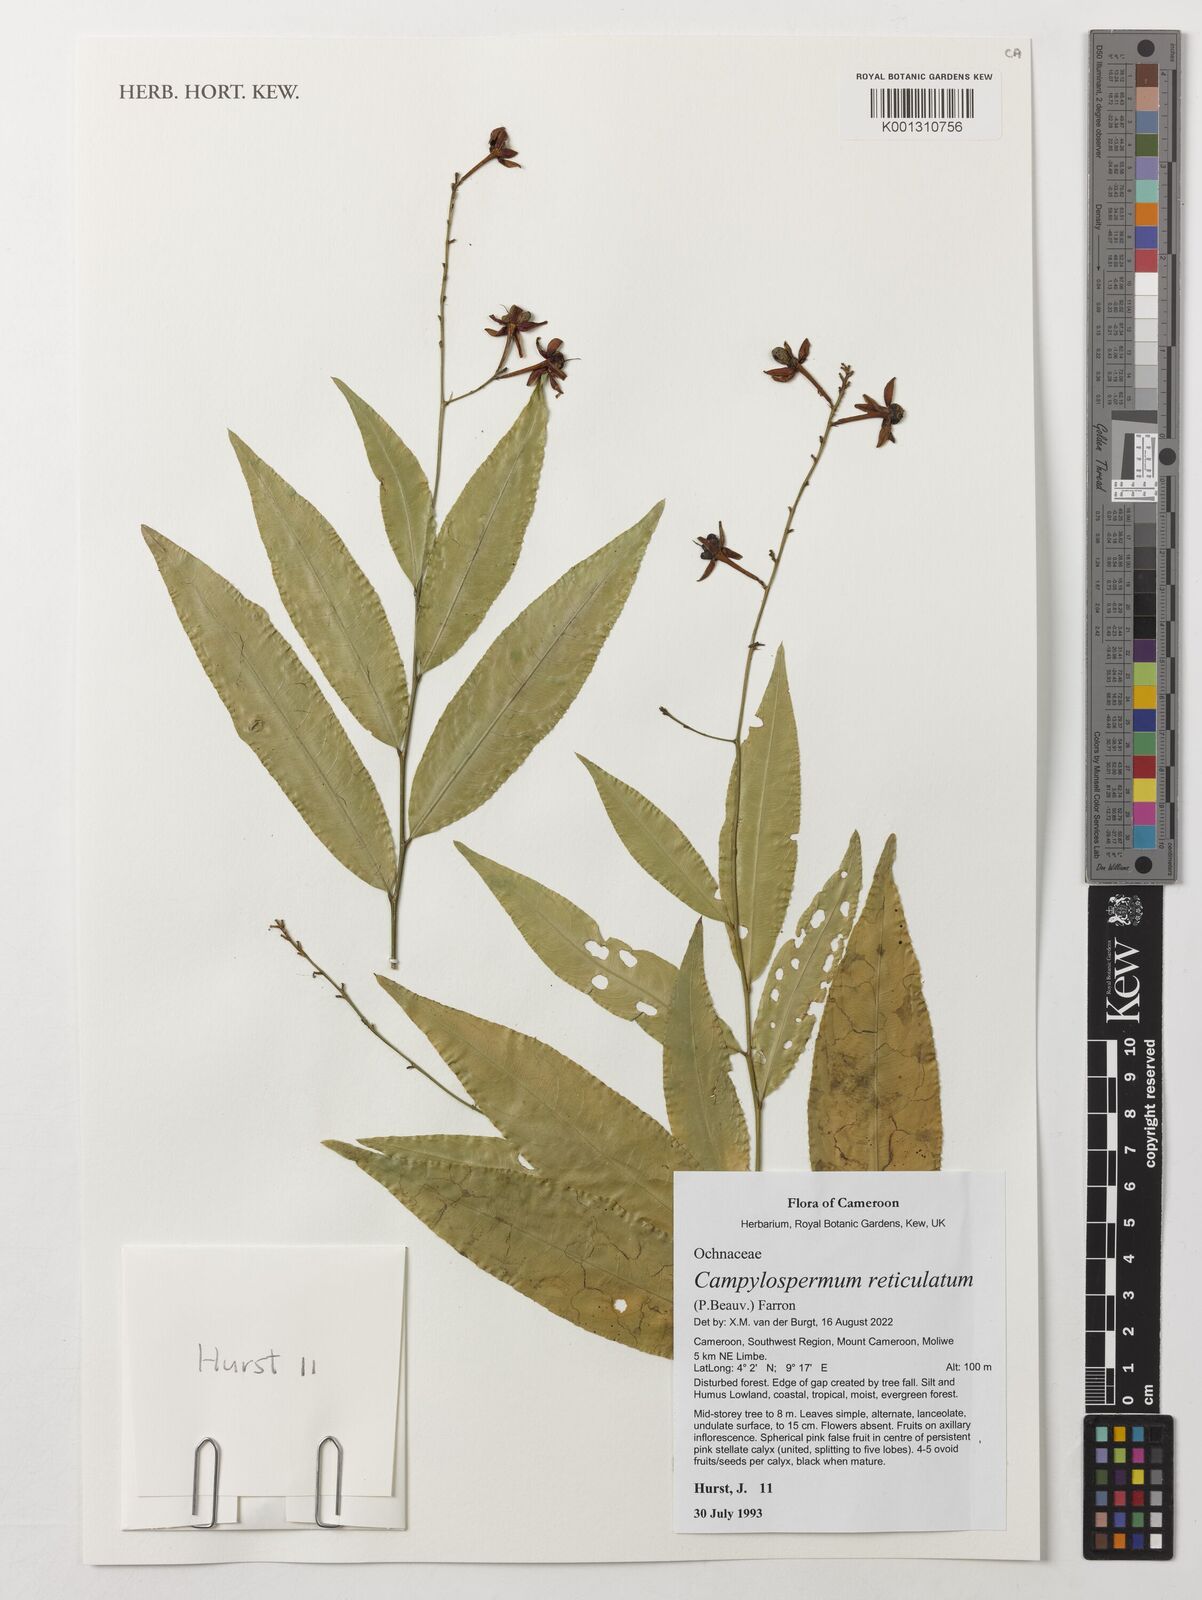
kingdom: Plantae
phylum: Tracheophyta
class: Magnoliopsida
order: Malpighiales
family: Ochnaceae
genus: Campylospermum
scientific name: Campylospermum reticulatum
